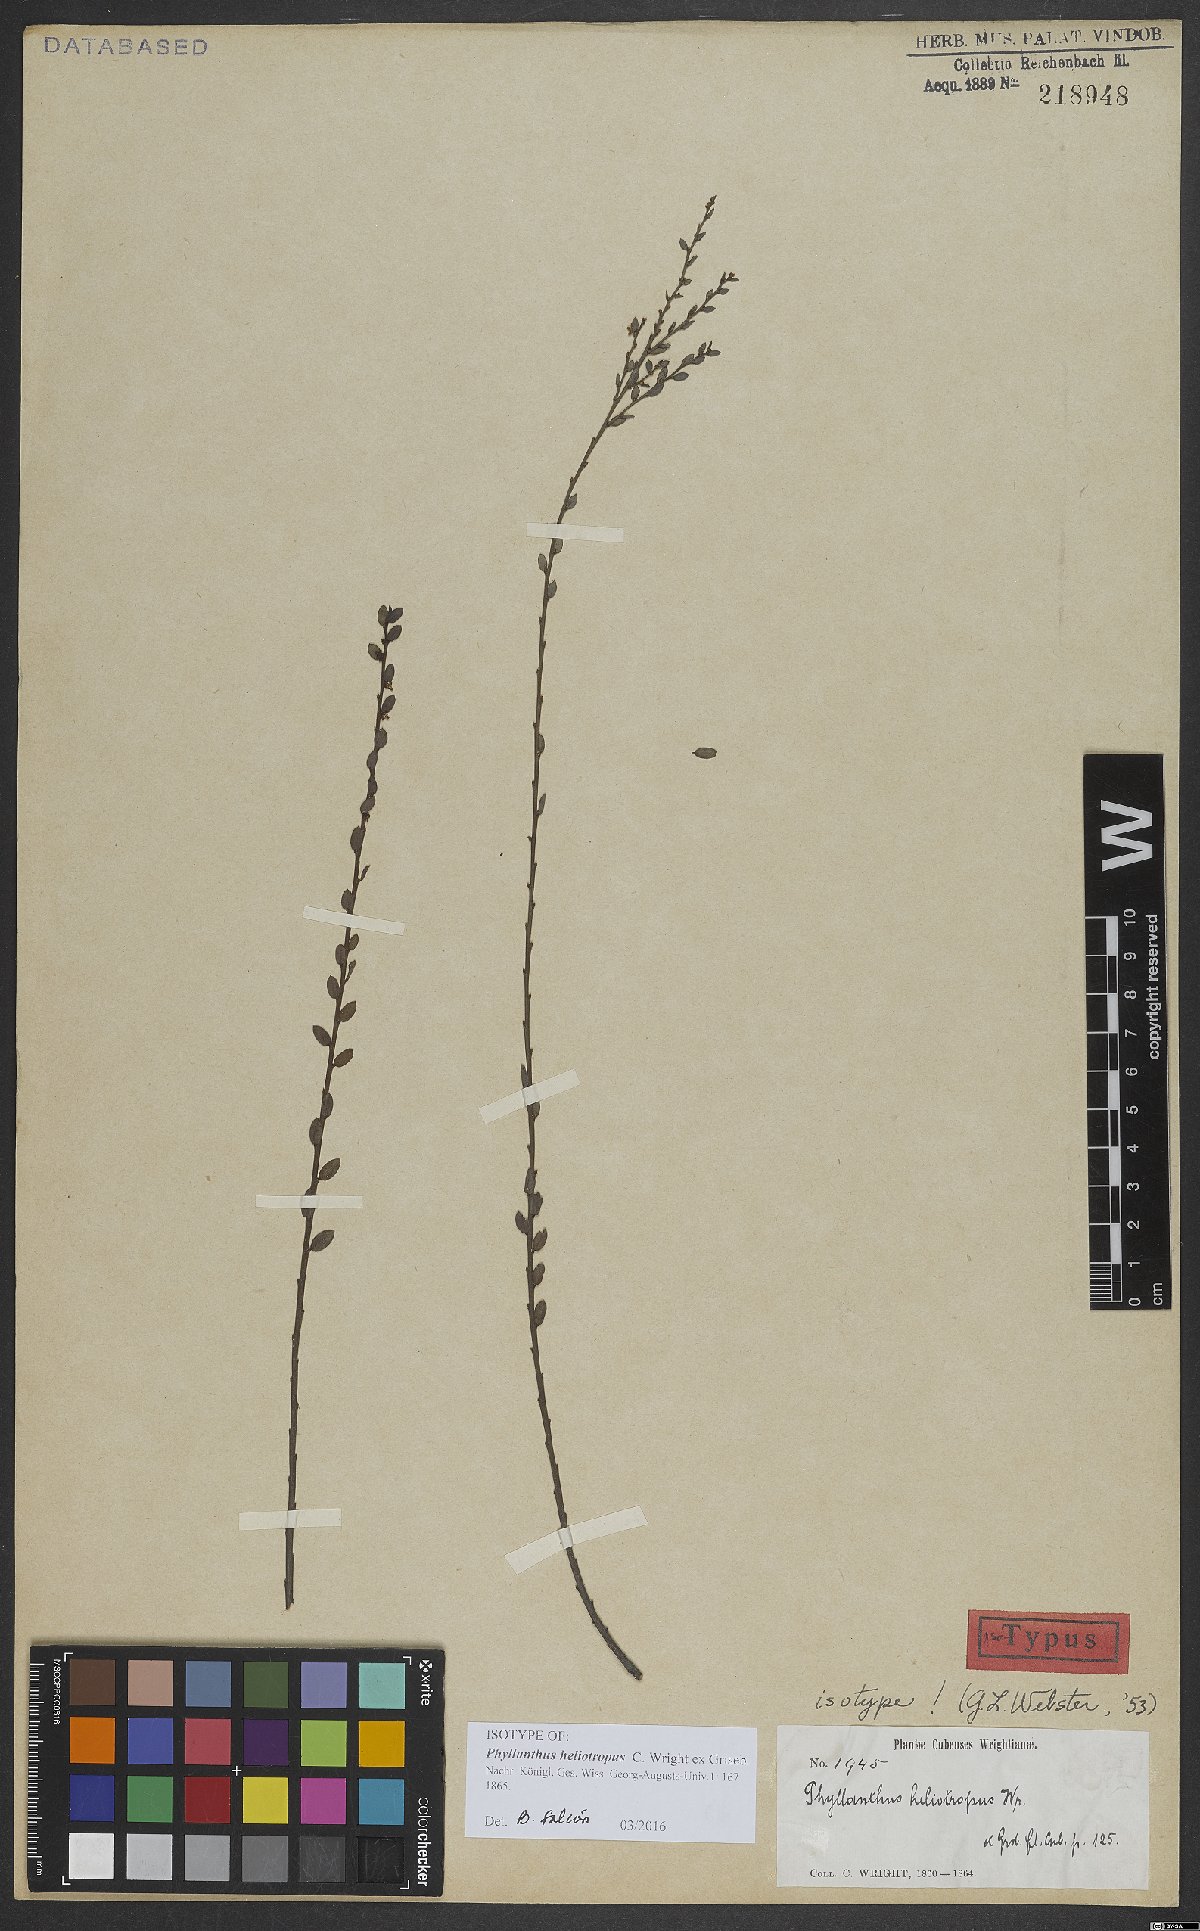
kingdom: Plantae
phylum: Tracheophyta
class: Magnoliopsida
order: Malpighiales
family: Phyllanthaceae
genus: Phyllanthus
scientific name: Phyllanthus heliotropus
